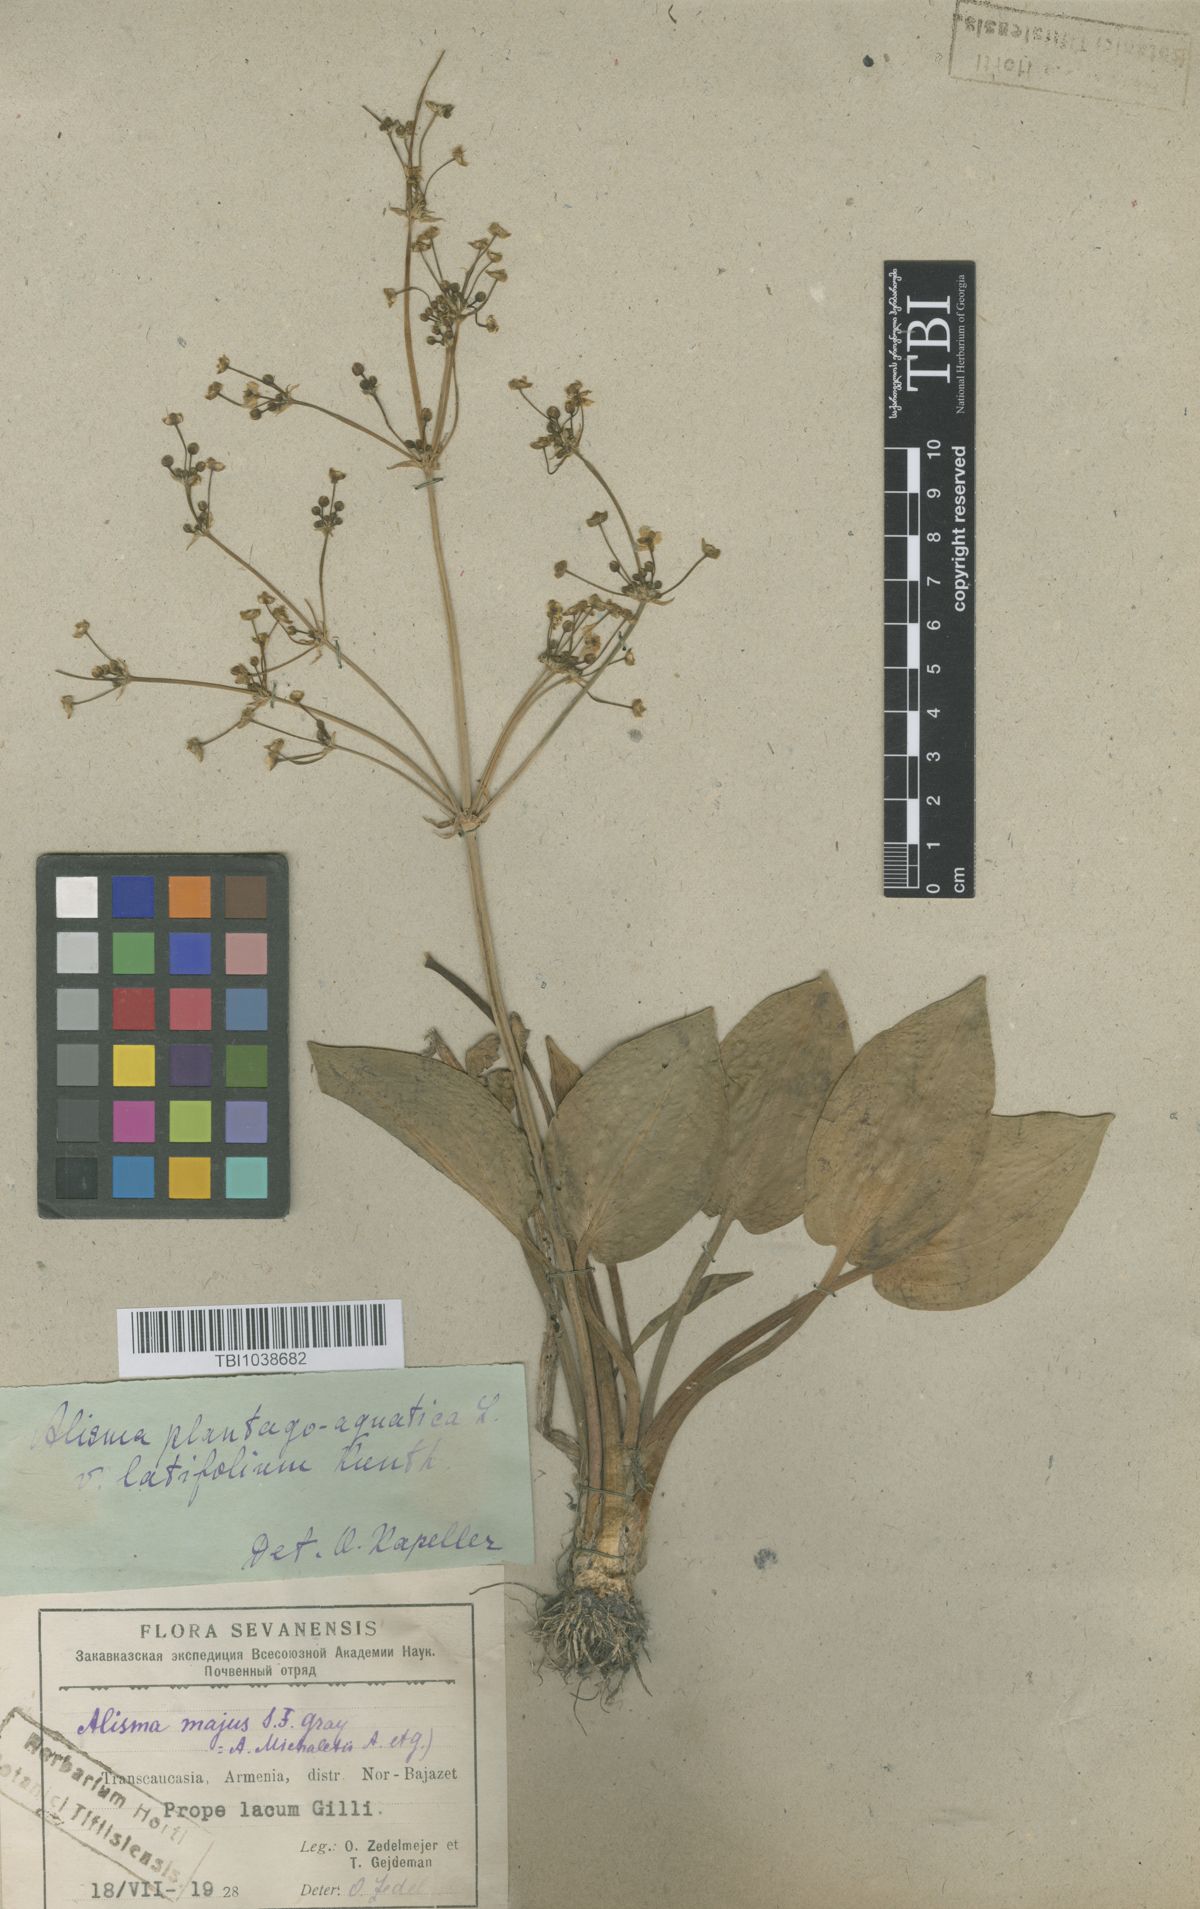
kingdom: Plantae
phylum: Tracheophyta
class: Liliopsida
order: Alismatales
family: Alismataceae
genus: Alisma
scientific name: Alisma plantago-aquatica
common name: Water-plantain
